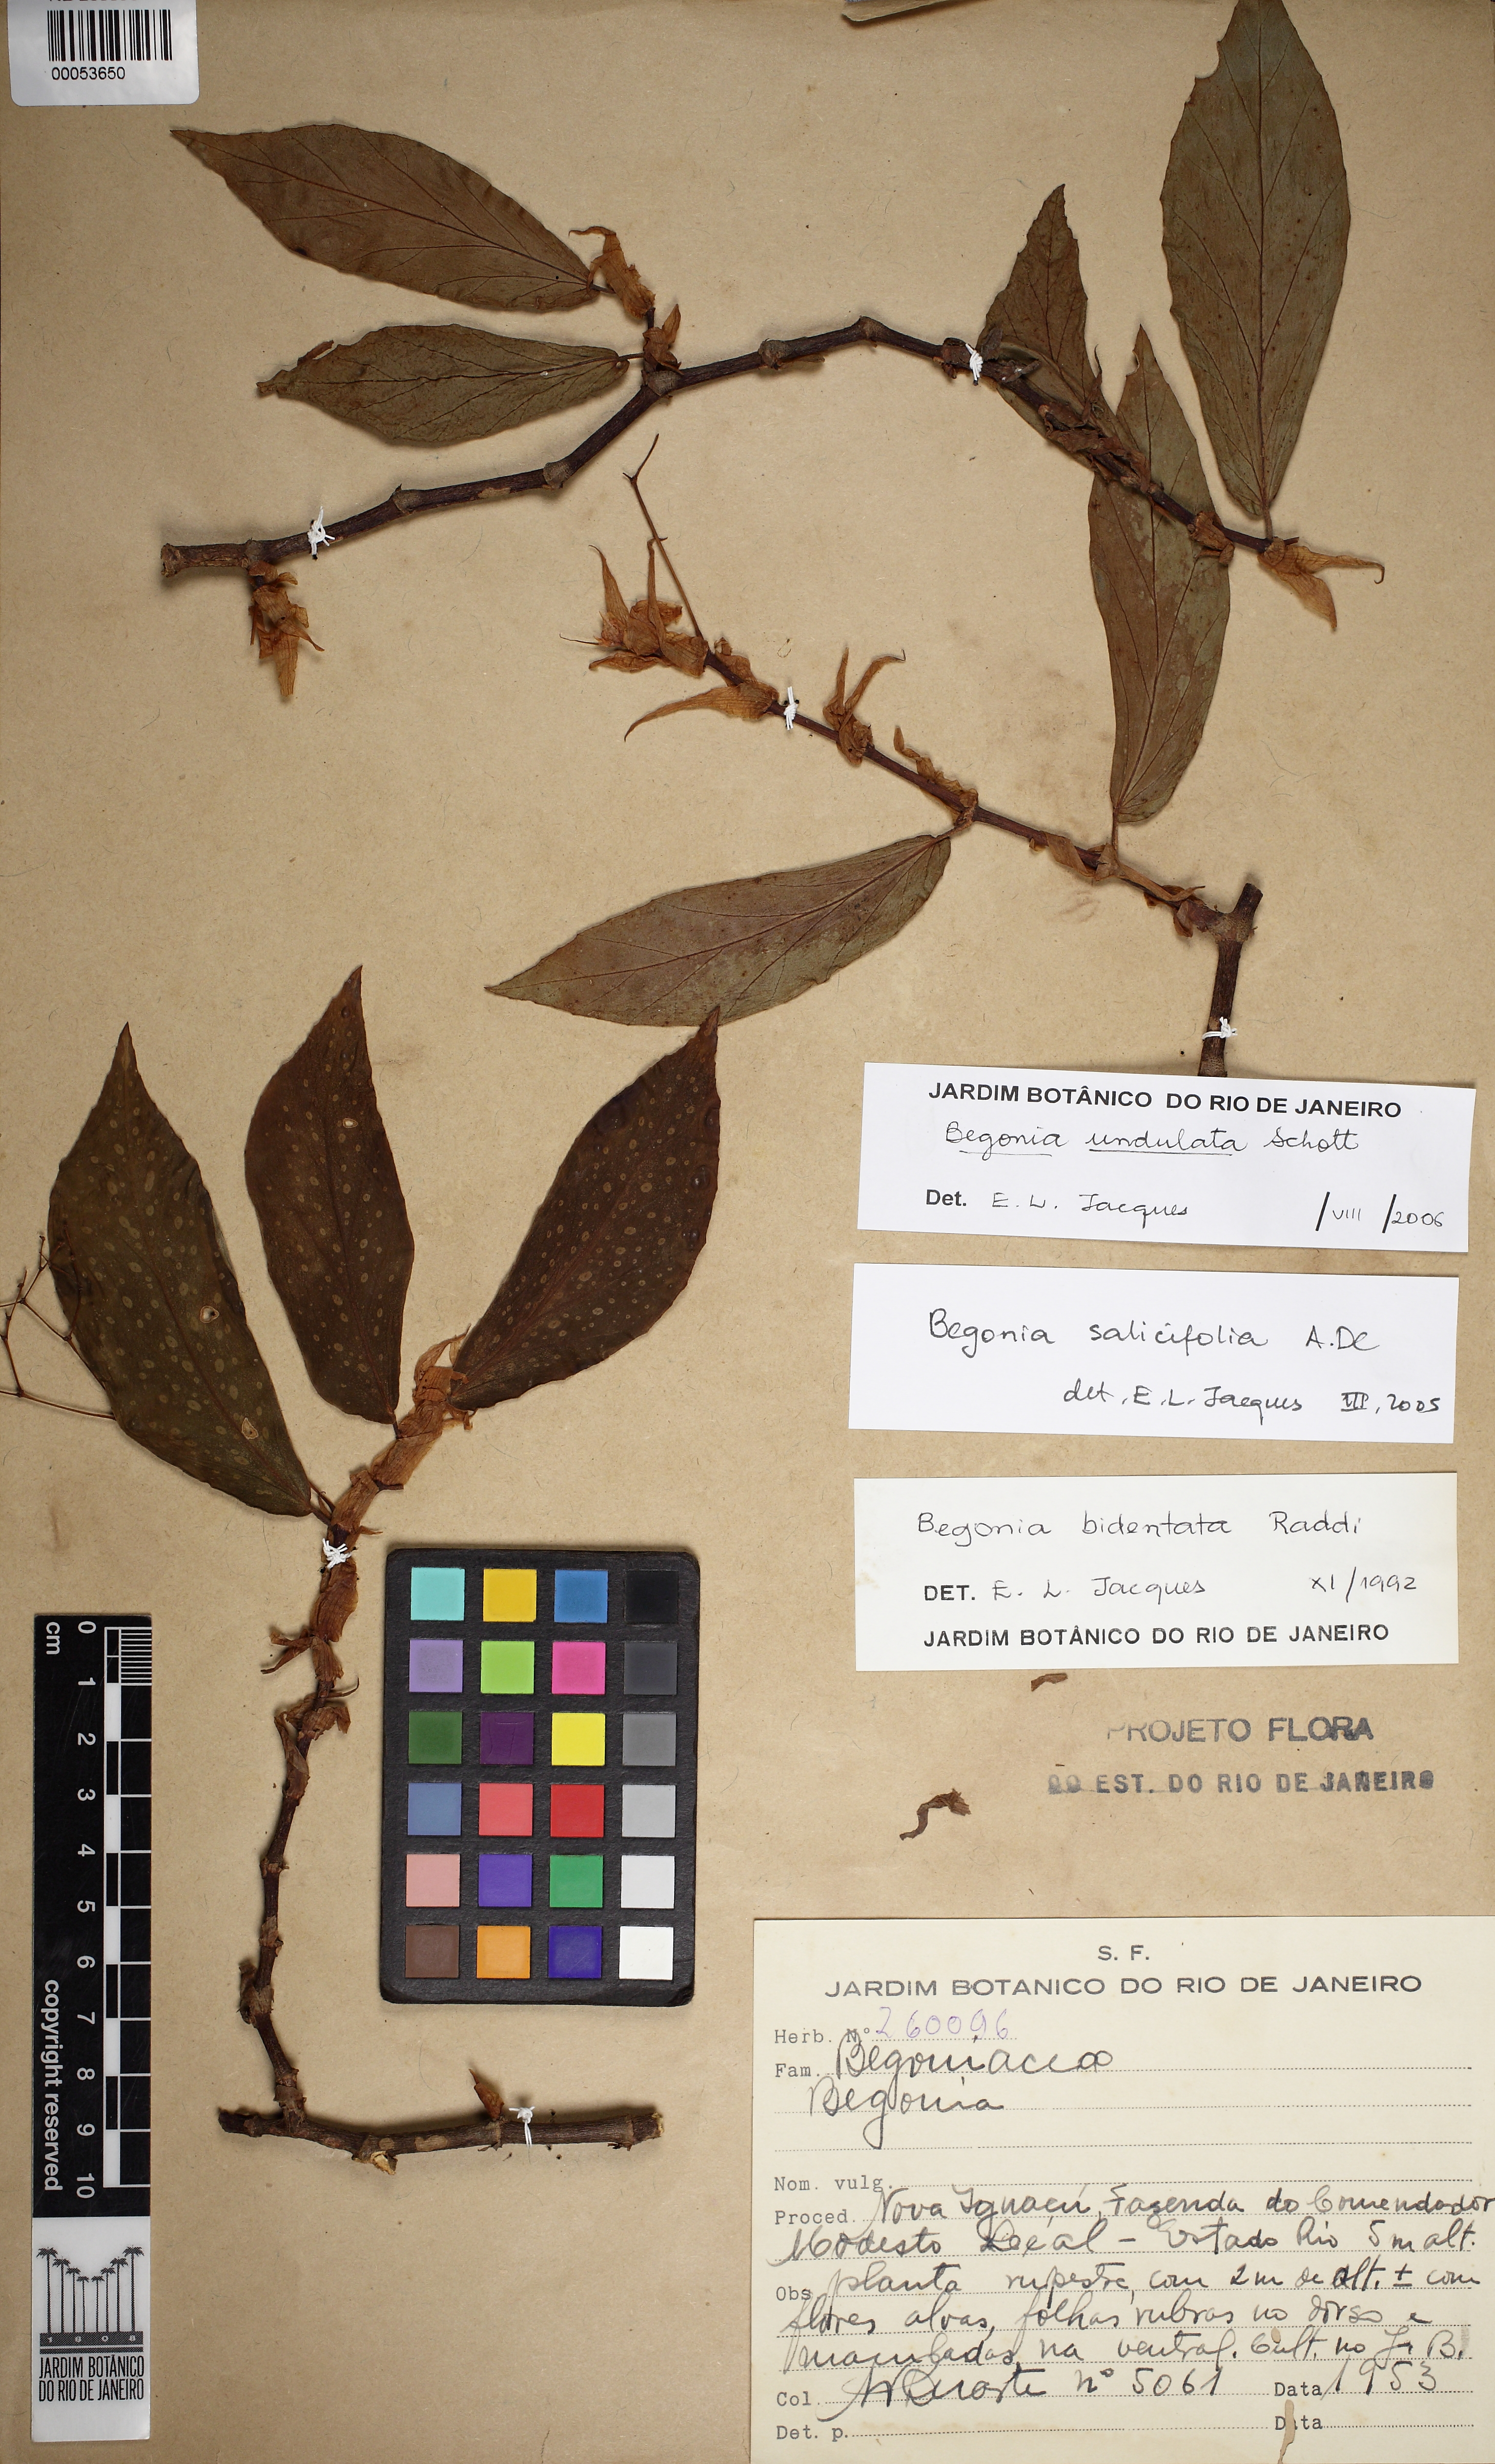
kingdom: Plantae
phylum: Tracheophyta
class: Magnoliopsida
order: Cucurbitales
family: Begoniaceae
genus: Begonia
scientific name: Begonia undulata
